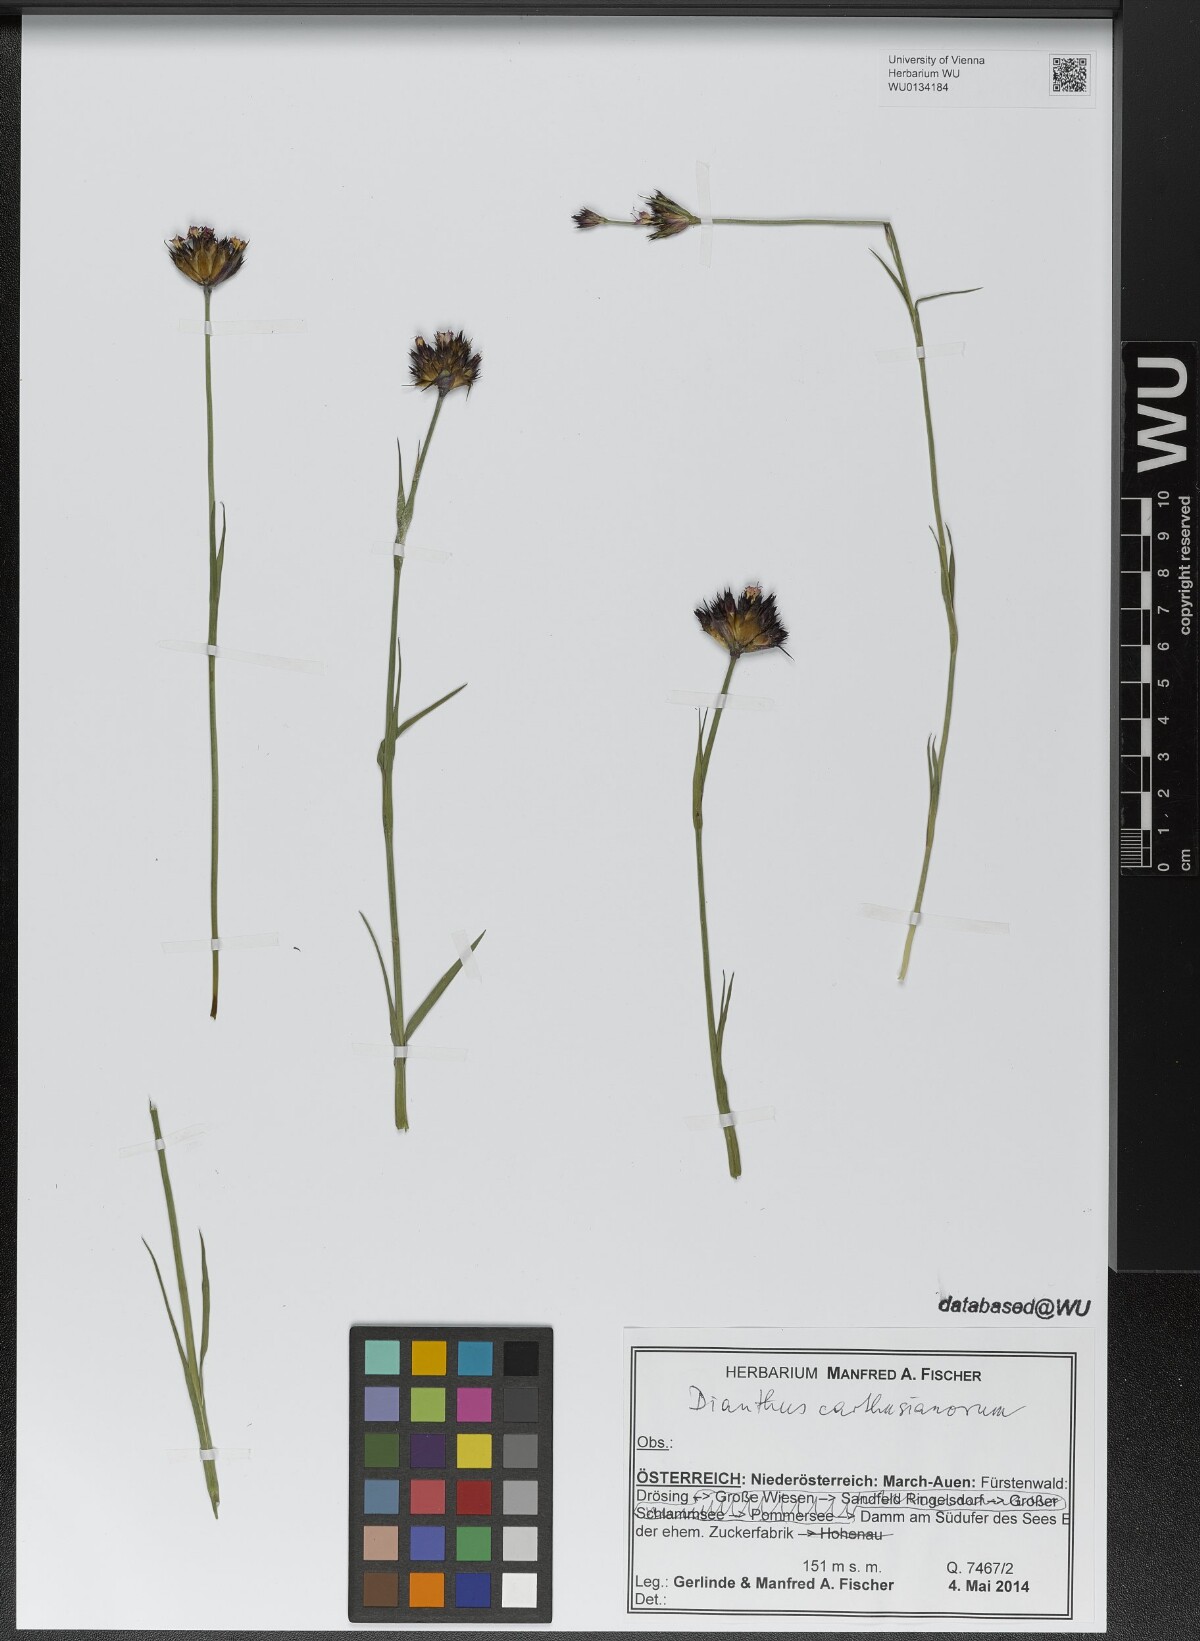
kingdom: Plantae
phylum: Tracheophyta
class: Magnoliopsida
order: Caryophyllales
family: Caryophyllaceae
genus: Dianthus
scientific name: Dianthus carthusianorum
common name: Carthusian pink
